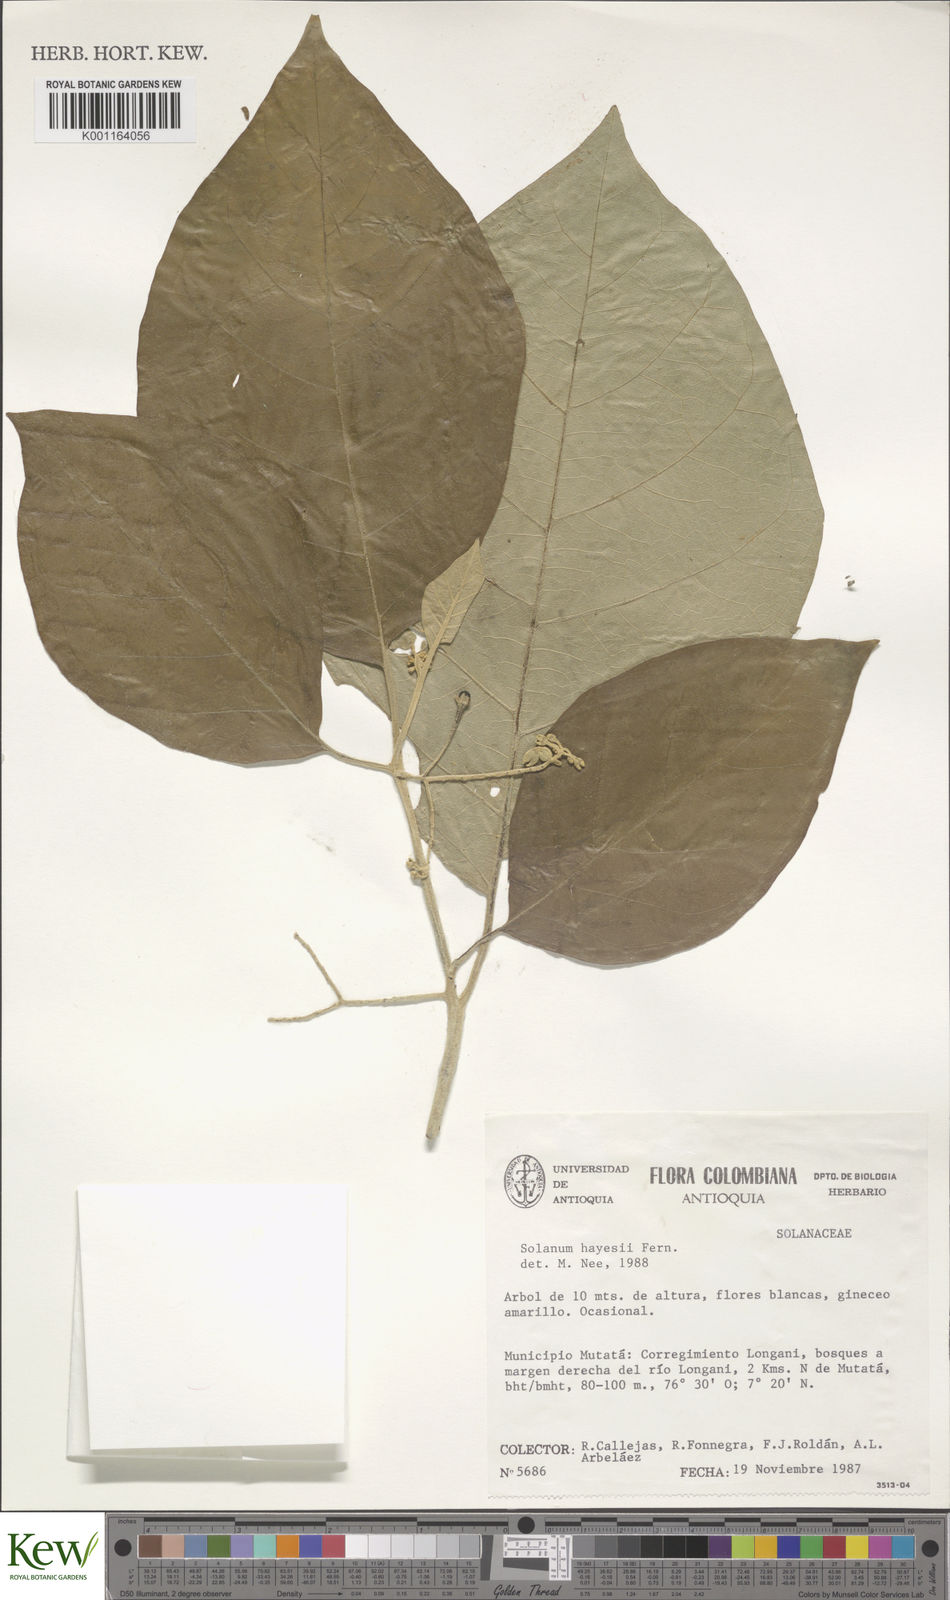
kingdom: Plantae
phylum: Tracheophyta
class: Magnoliopsida
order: Solanales
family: Solanaceae
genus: Solanum
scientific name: Solanum hayesii
